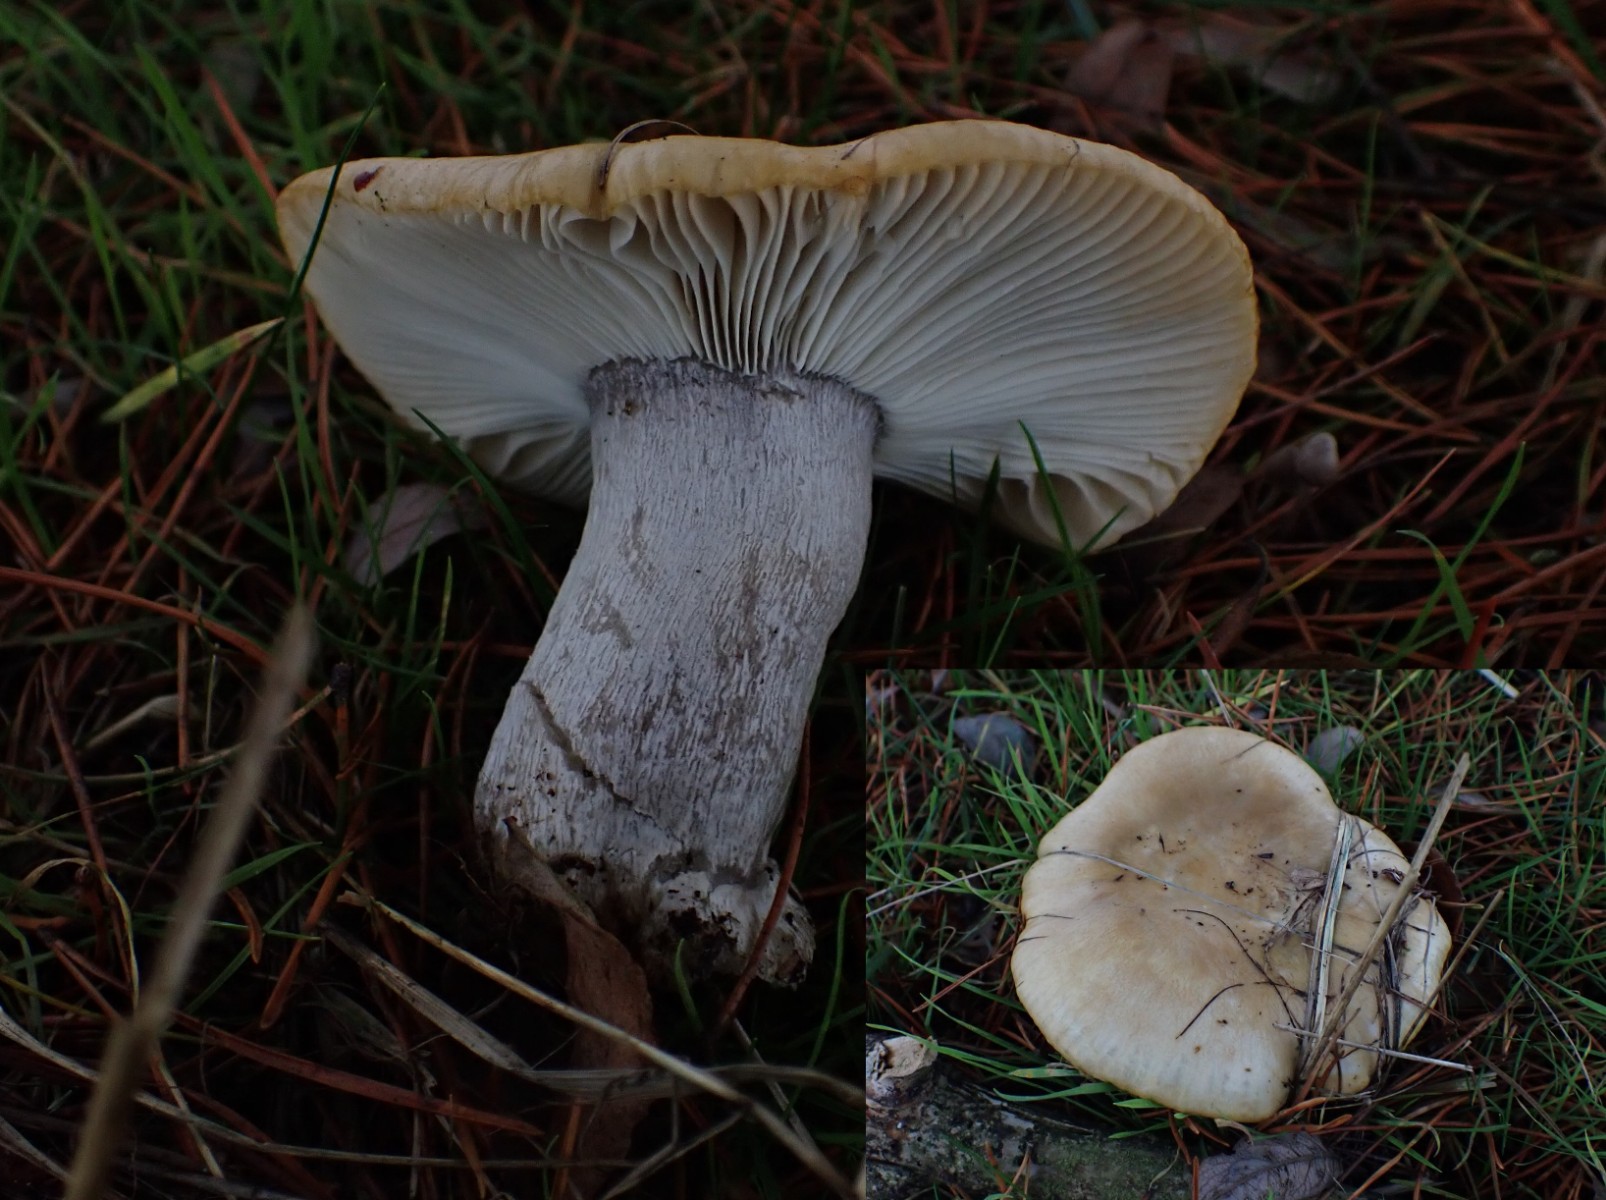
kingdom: Fungi
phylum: Basidiomycota
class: Agaricomycetes
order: Agaricales
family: Tricholomataceae
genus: Lepista
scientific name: Lepista personata
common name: bleg hekseringshat
